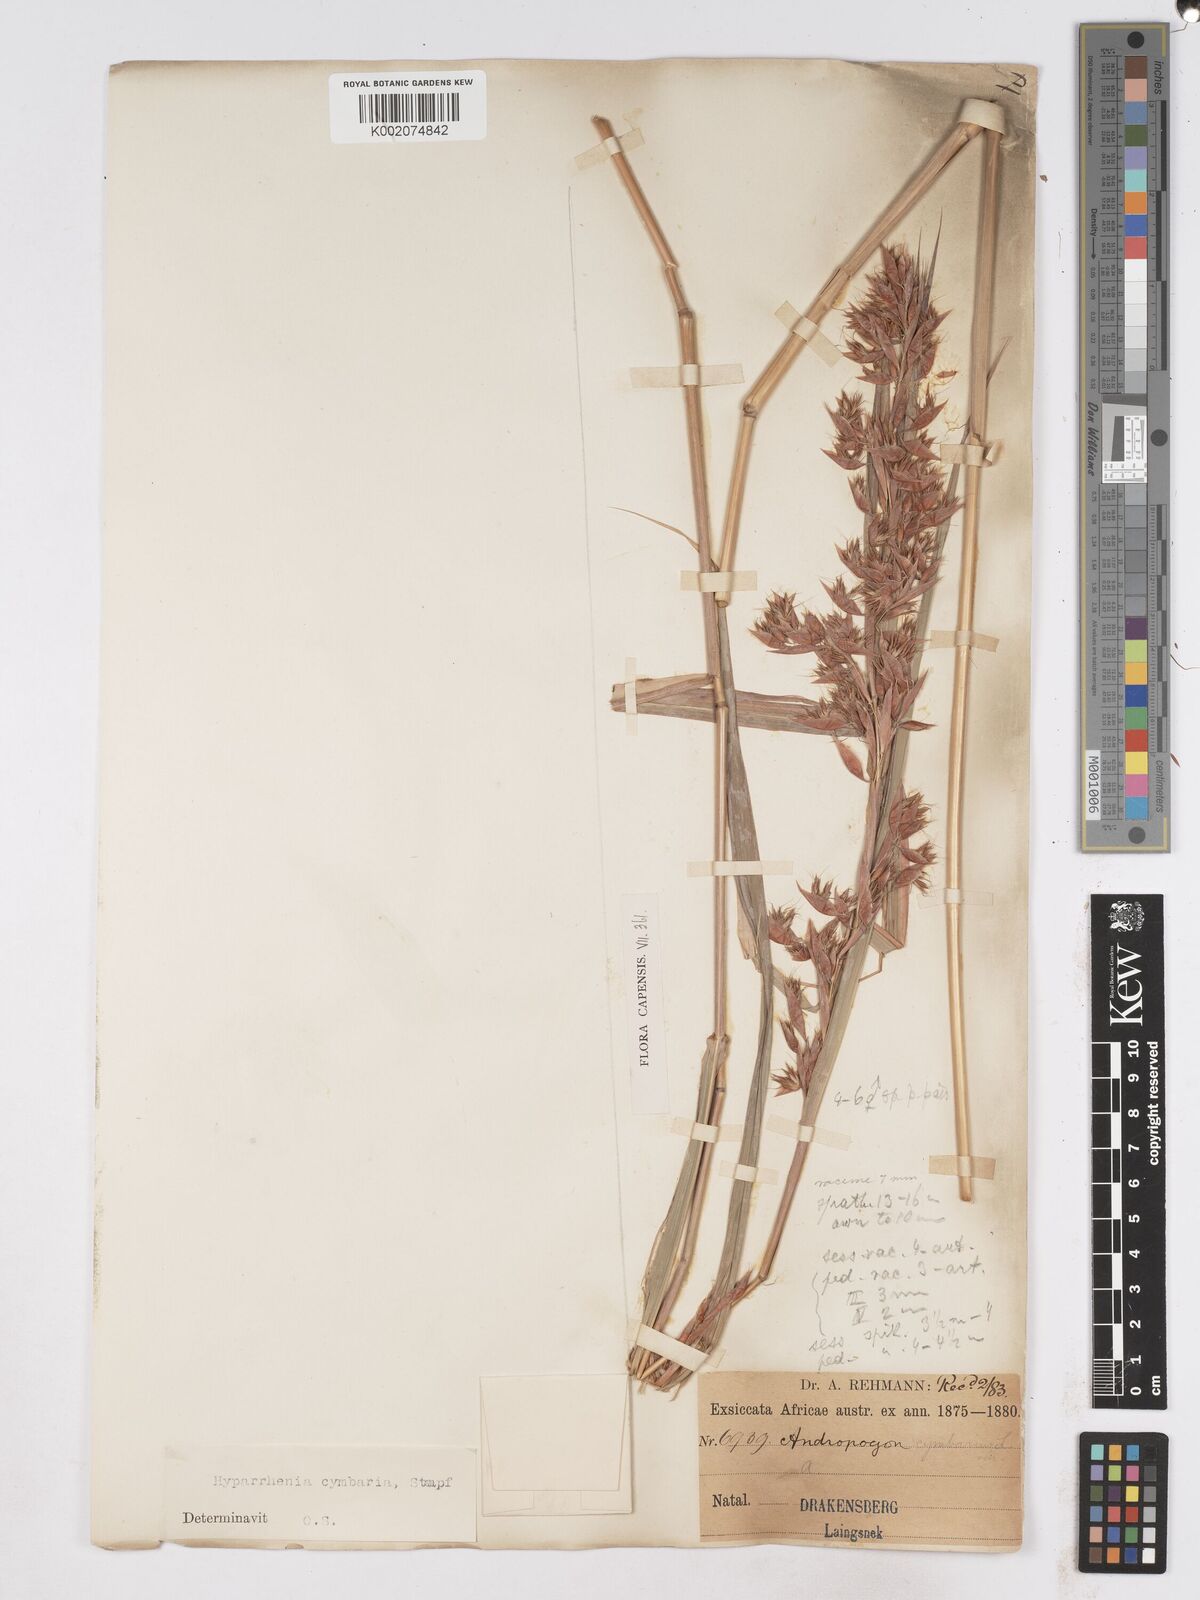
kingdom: Plantae
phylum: Tracheophyta
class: Liliopsida
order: Poales
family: Poaceae
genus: Hyparrhenia
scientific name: Hyparrhenia cymbaria
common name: Boat thatching grass
